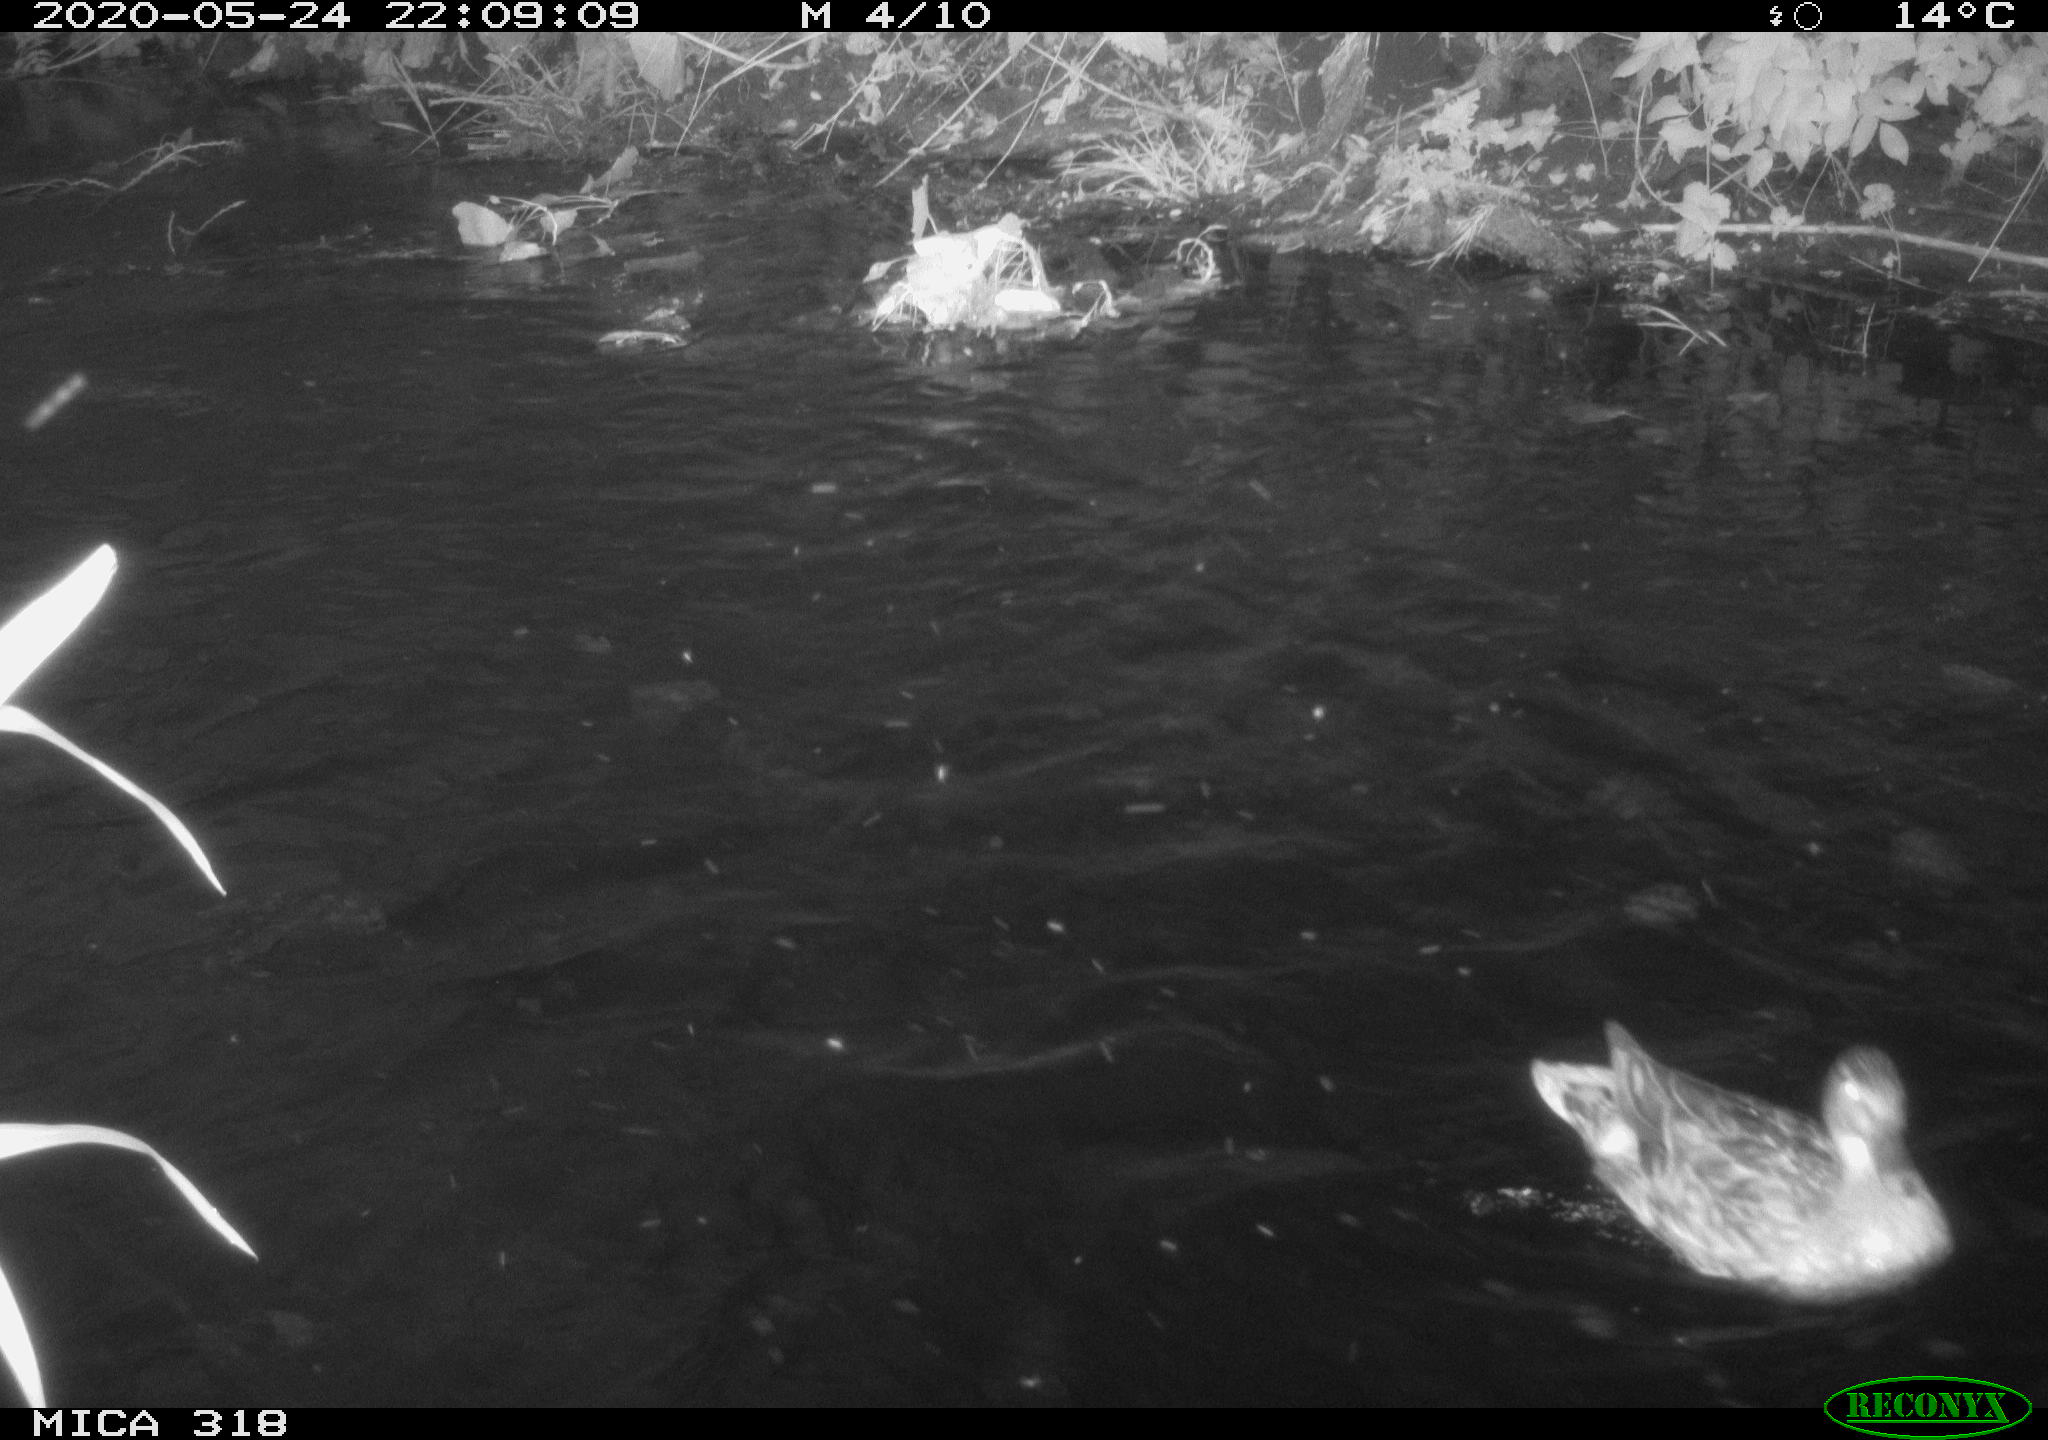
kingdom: Animalia
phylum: Chordata
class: Aves
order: Anseriformes
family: Anatidae
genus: Anas
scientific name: Anas platyrhynchos
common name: Mallard
